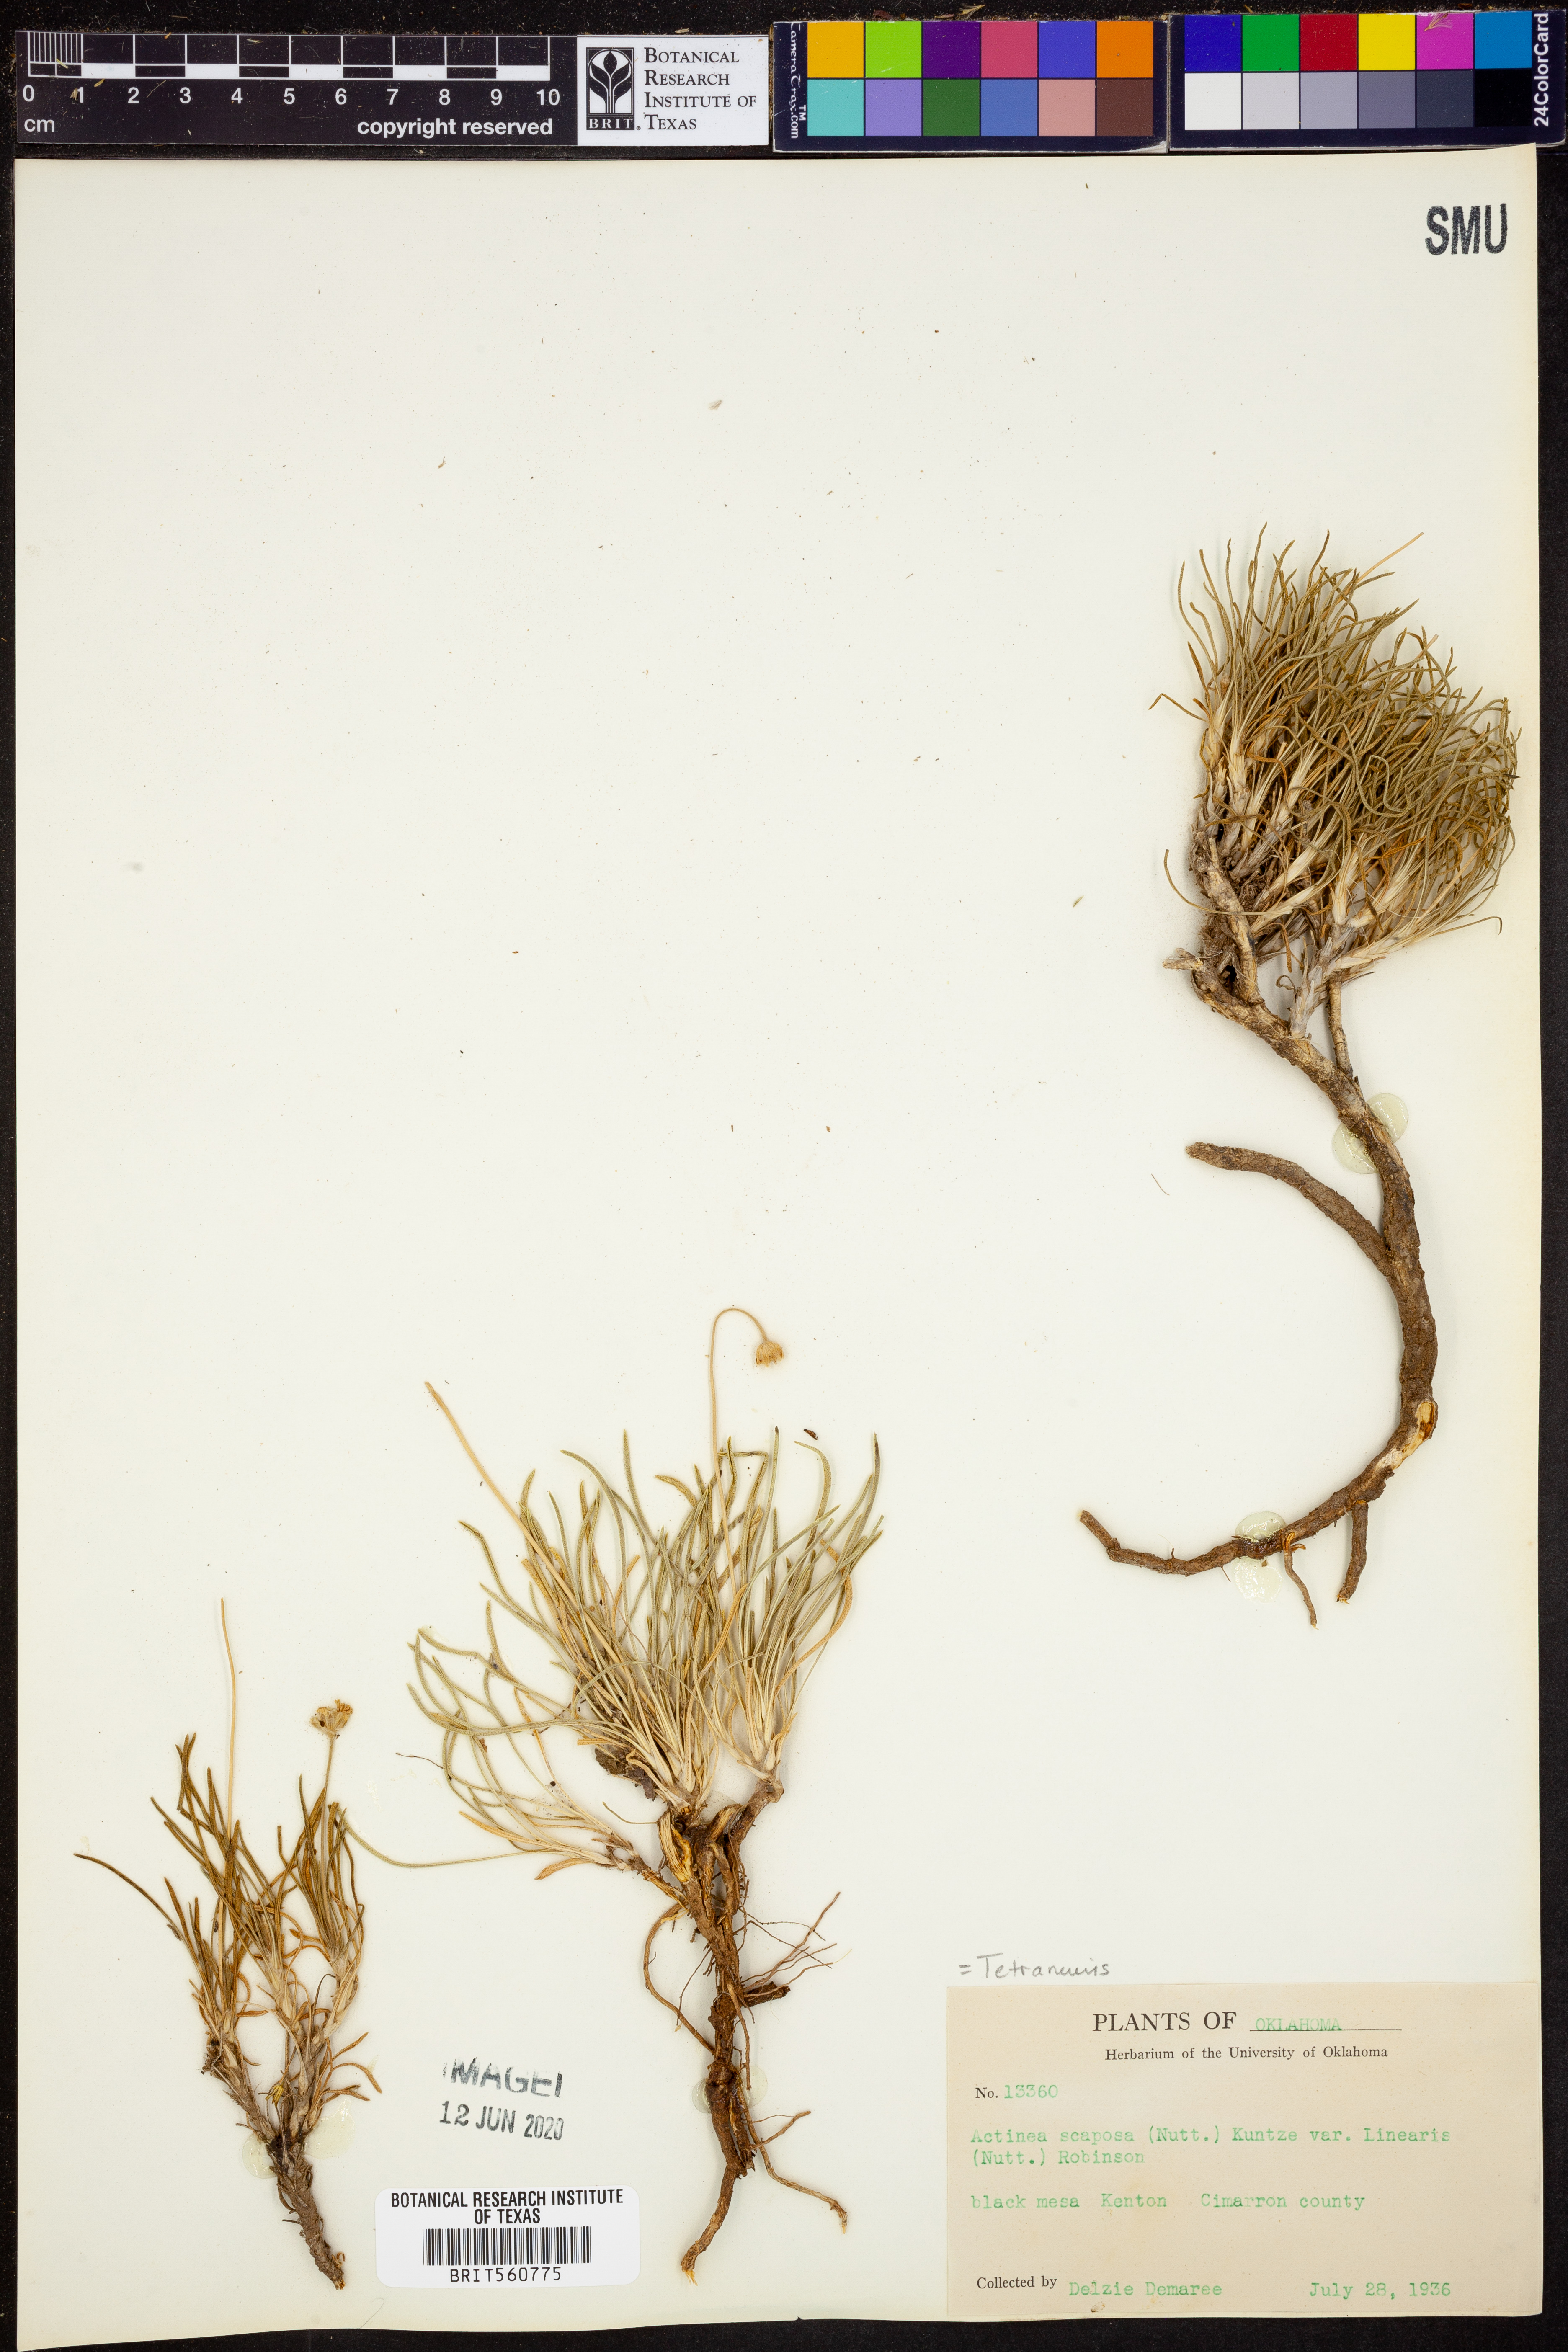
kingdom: Plantae
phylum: Tracheophyta
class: Magnoliopsida
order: Asterales
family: Asteraceae
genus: Tetraneuris
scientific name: Tetraneuris scaposa
